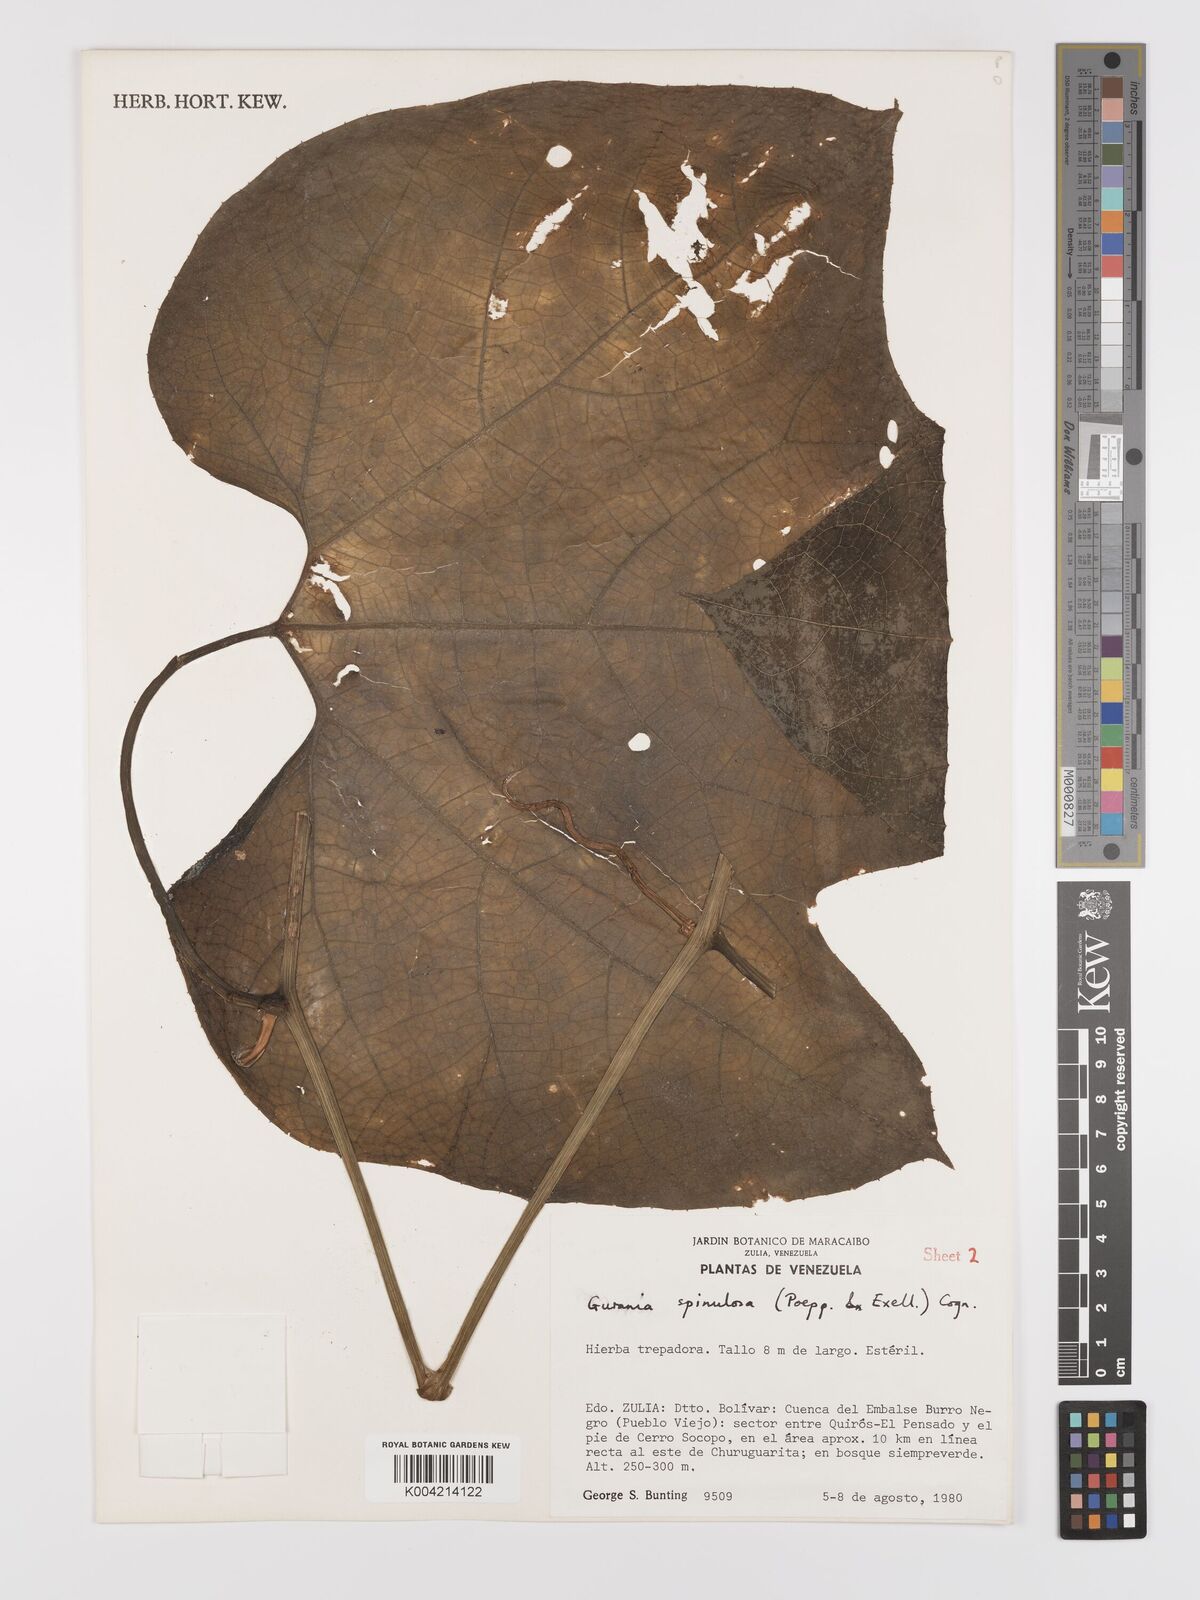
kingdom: Plantae
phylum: Tracheophyta
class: Magnoliopsida
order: Cucurbitales
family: Cucurbitaceae
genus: Gurania
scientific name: Gurania lobata
